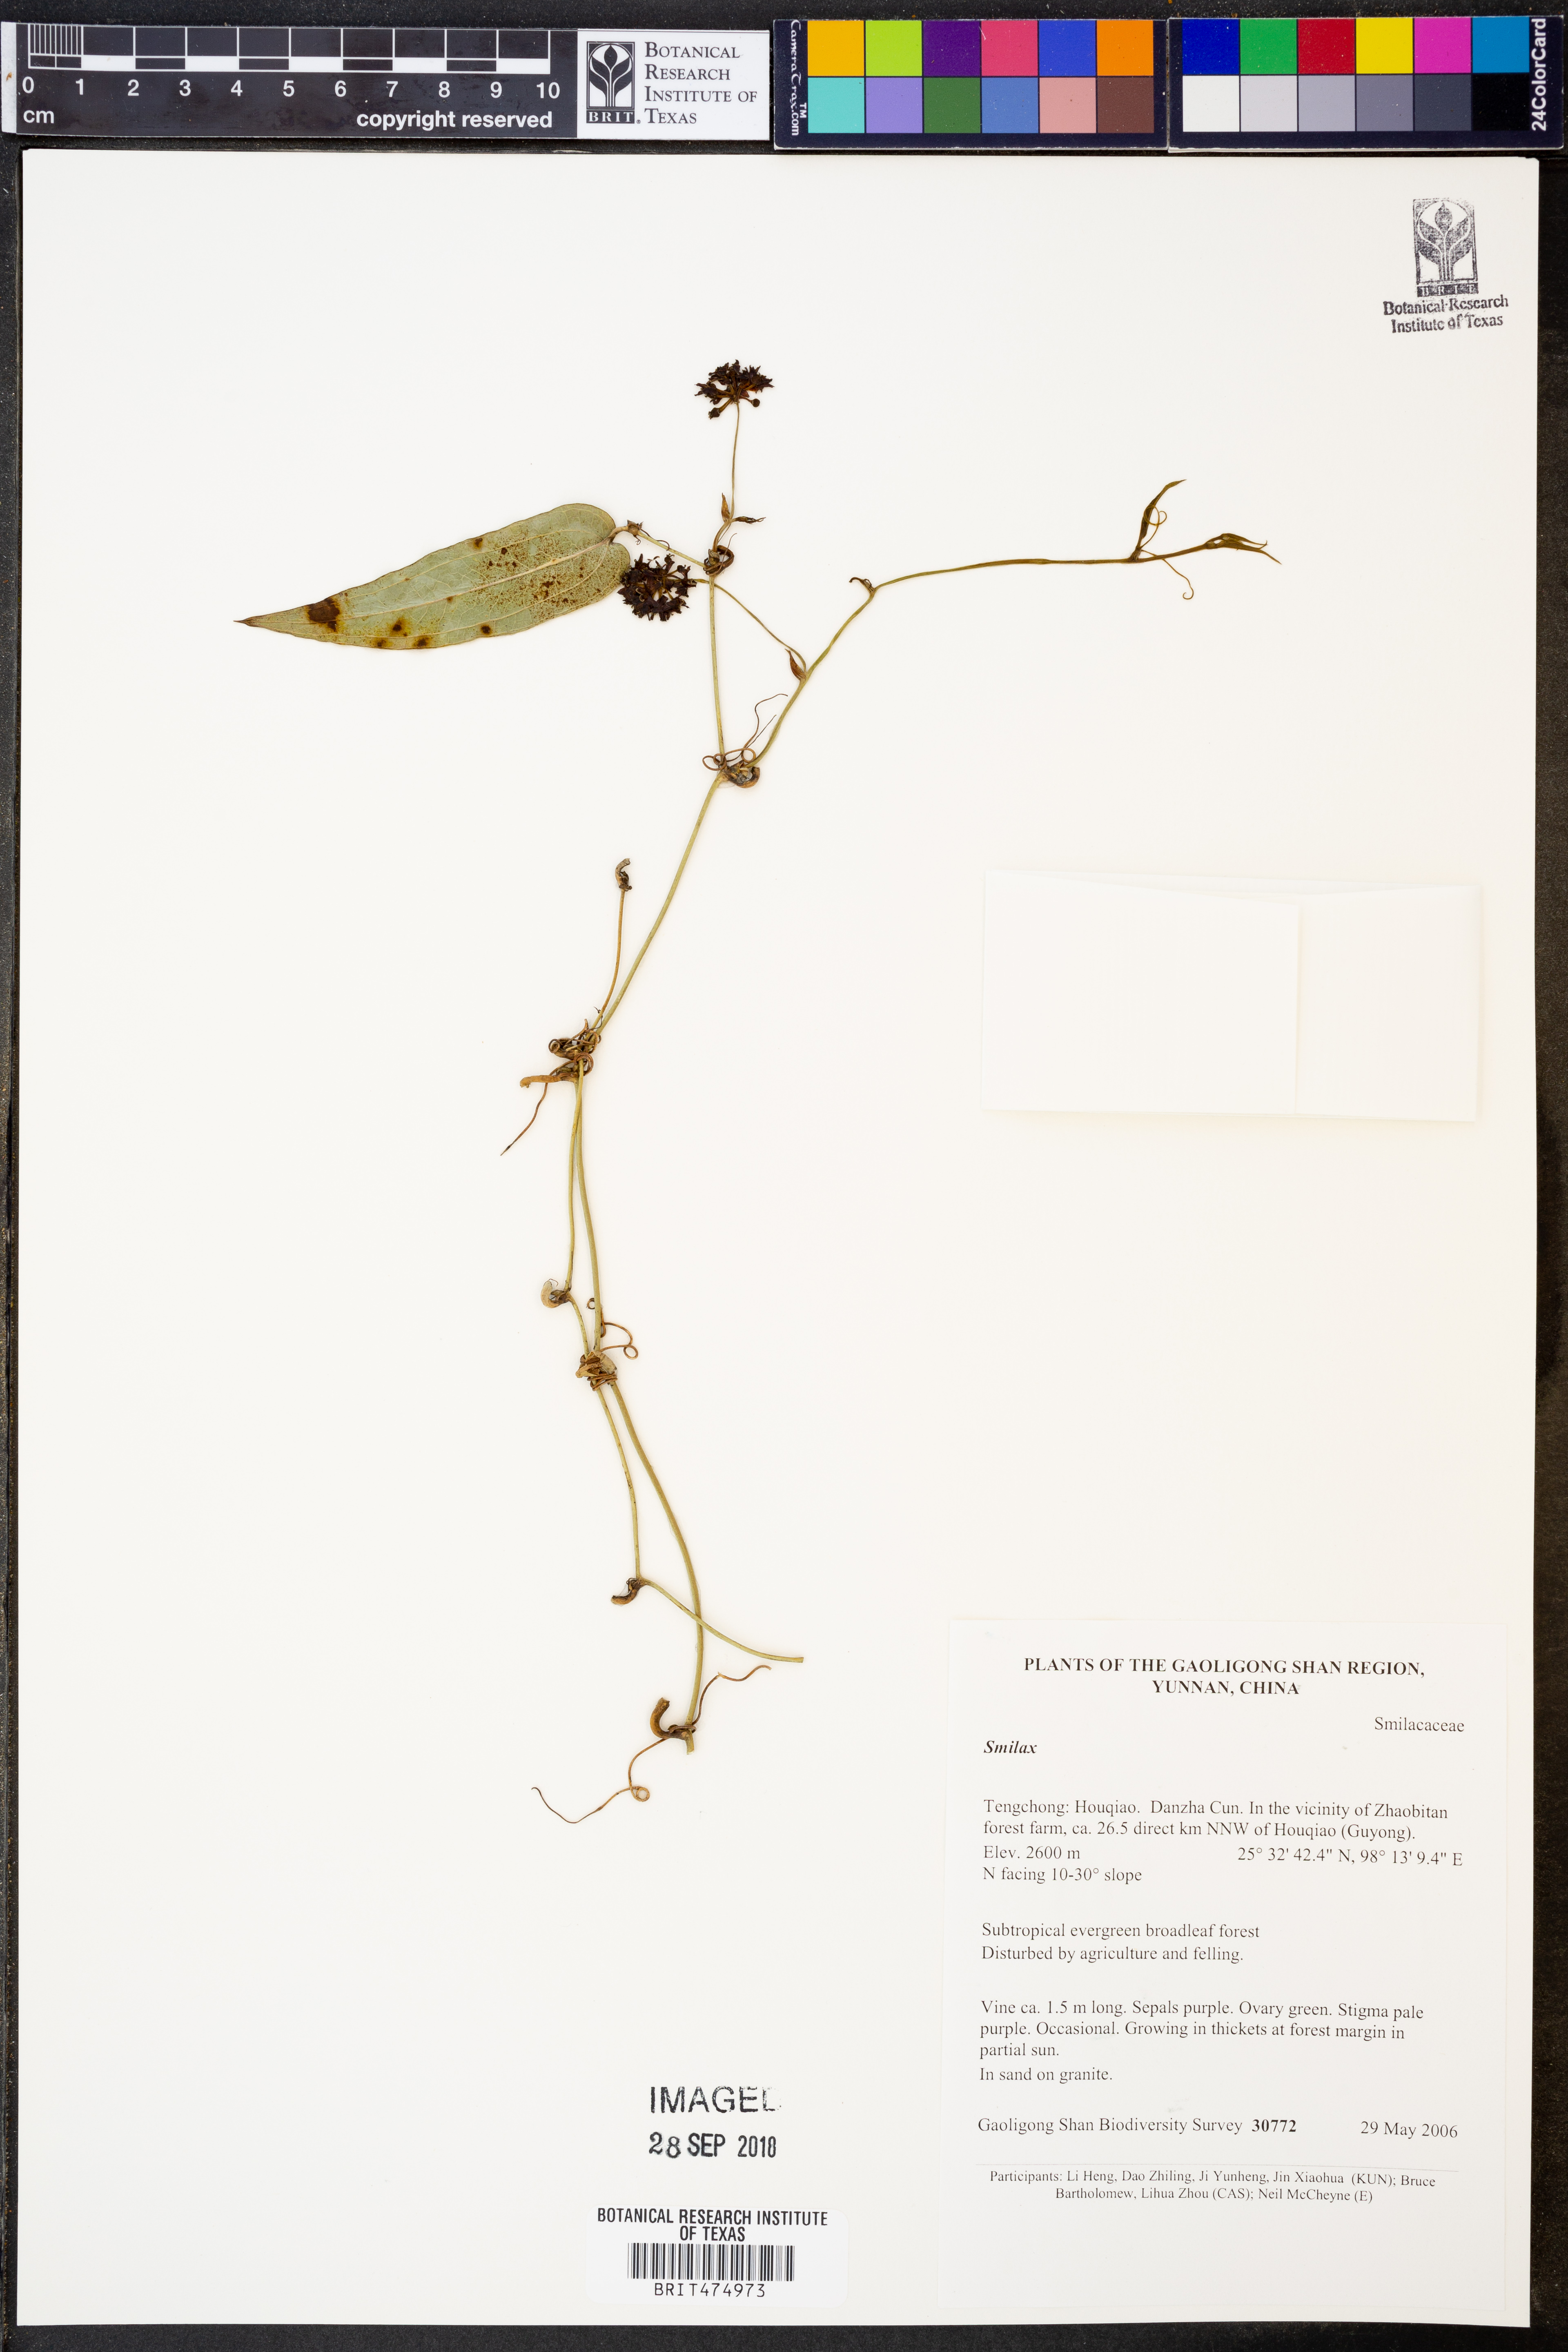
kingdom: Plantae
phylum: Tracheophyta
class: Liliopsida
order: Liliales
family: Smilacaceae
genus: Smilax
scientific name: Smilax
